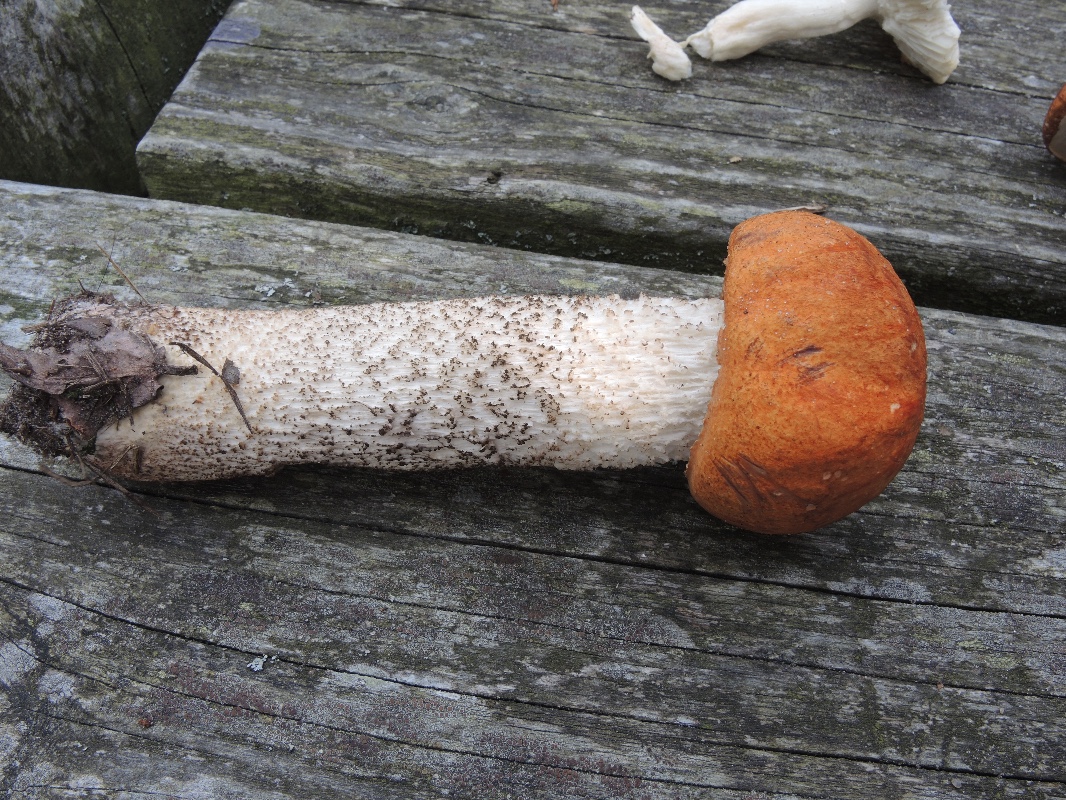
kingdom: Fungi
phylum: Basidiomycota
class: Agaricomycetes
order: Boletales
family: Boletaceae
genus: Leccinum
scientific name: Leccinum albostipitatum
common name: aspe-skælrørhat
